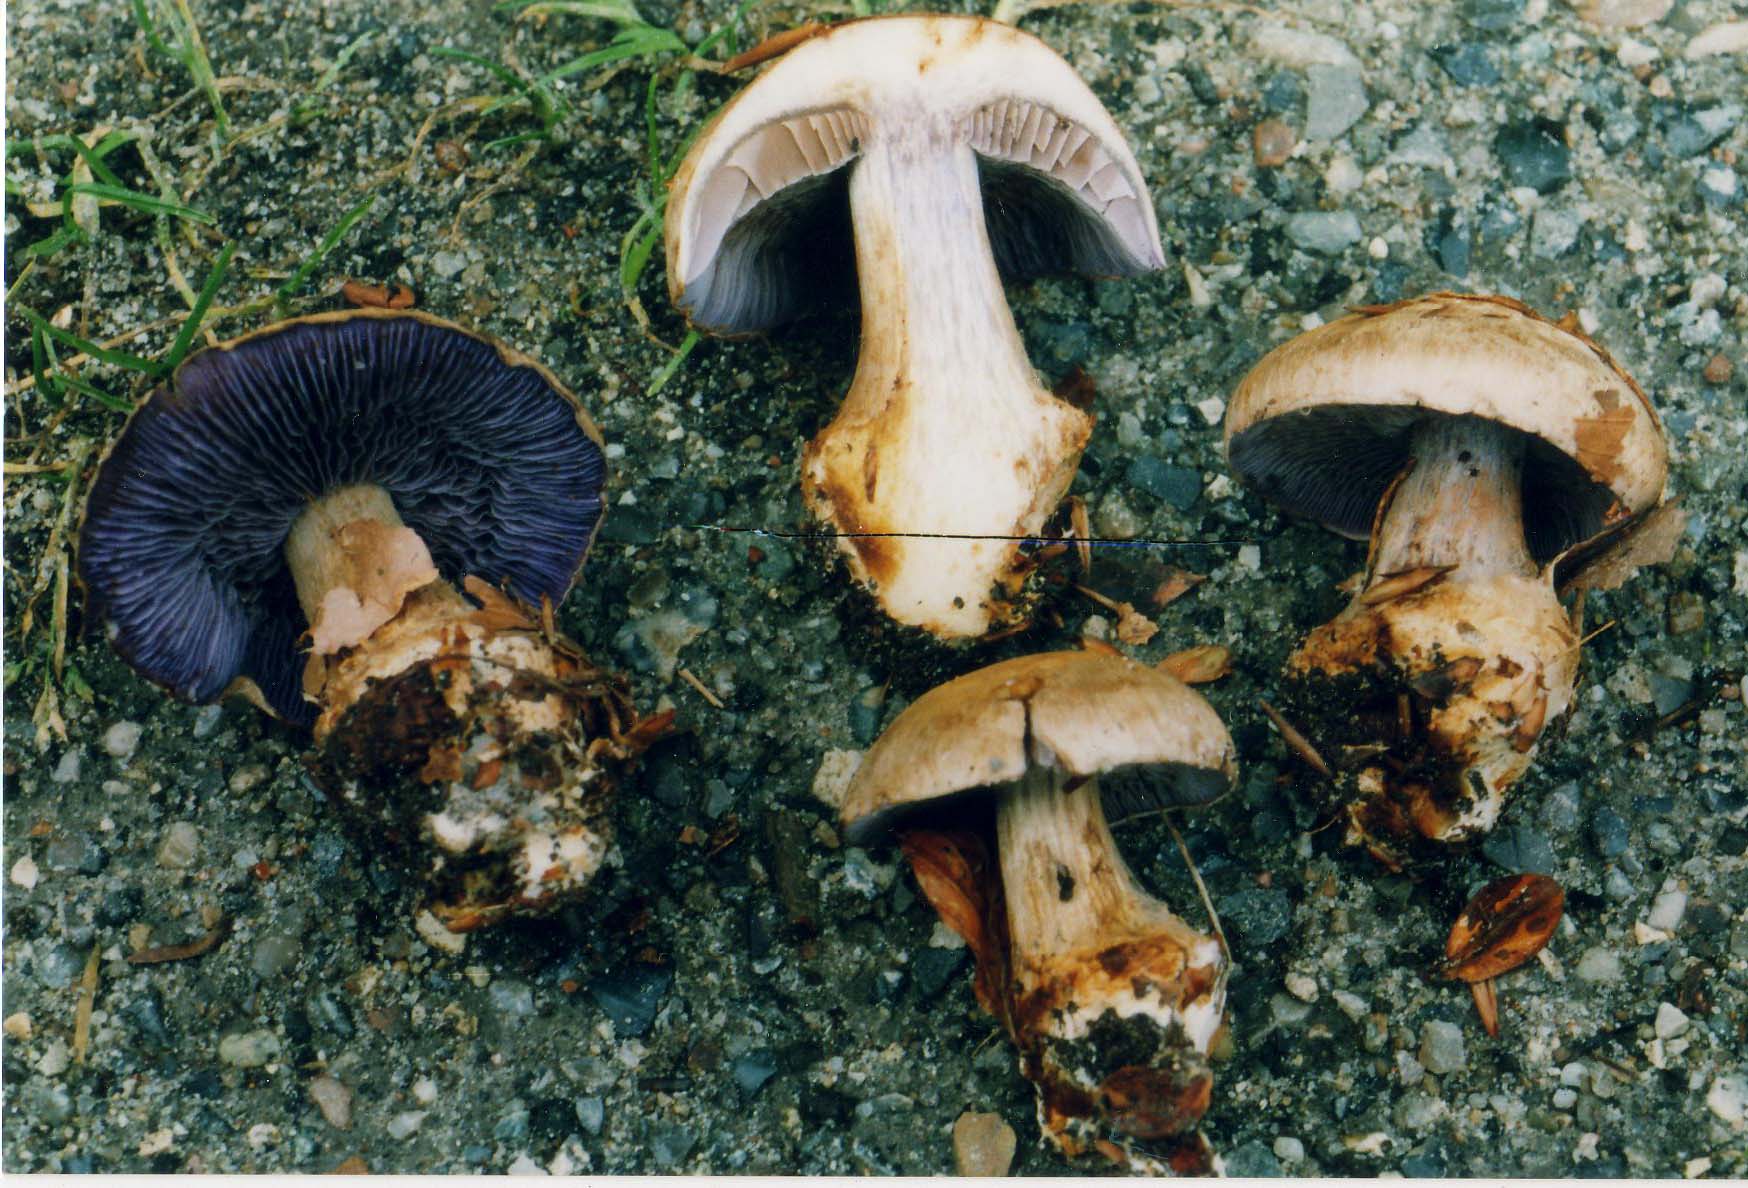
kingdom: Fungi
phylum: Basidiomycota
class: Agaricomycetes
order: Agaricales
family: Cortinariaceae
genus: Phlegmacium
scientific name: Phlegmacium luhmannii
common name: musegrå slørhat
